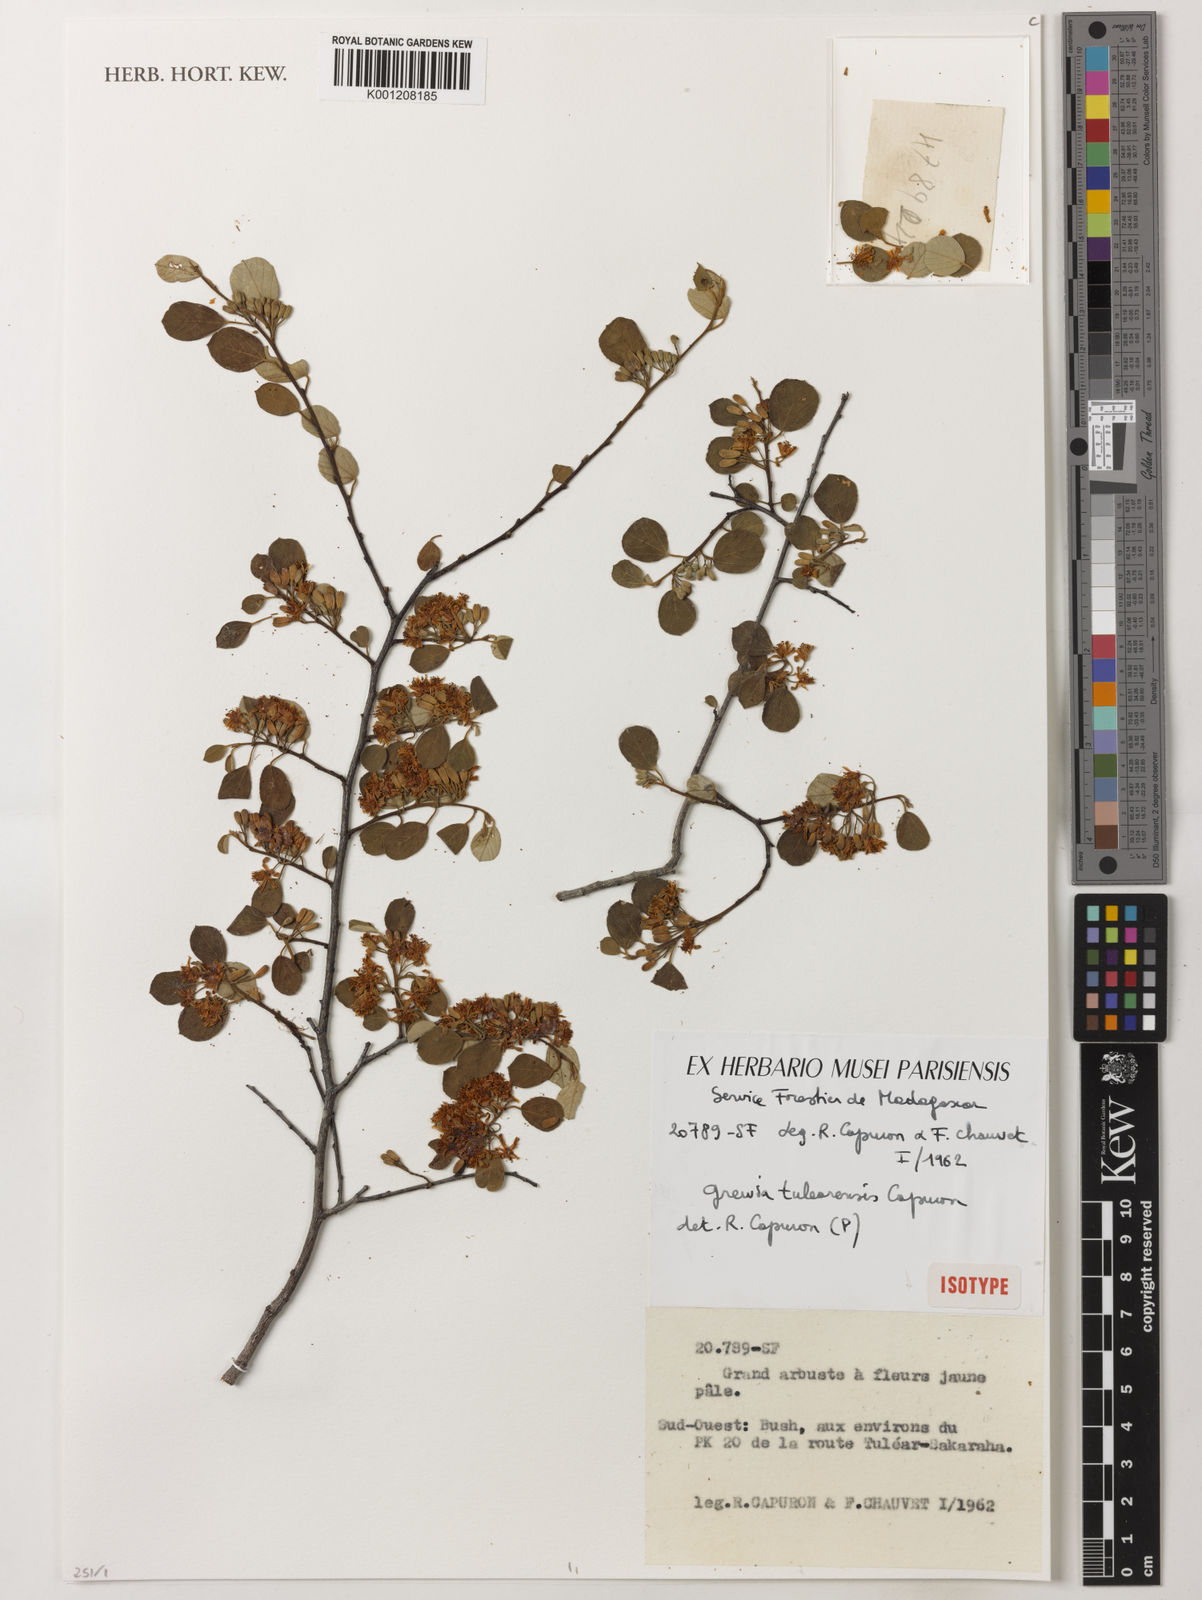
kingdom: Plantae
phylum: Tracheophyta
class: Magnoliopsida
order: Malvales
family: Malvaceae
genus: Grewia
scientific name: Grewia tulearensis
